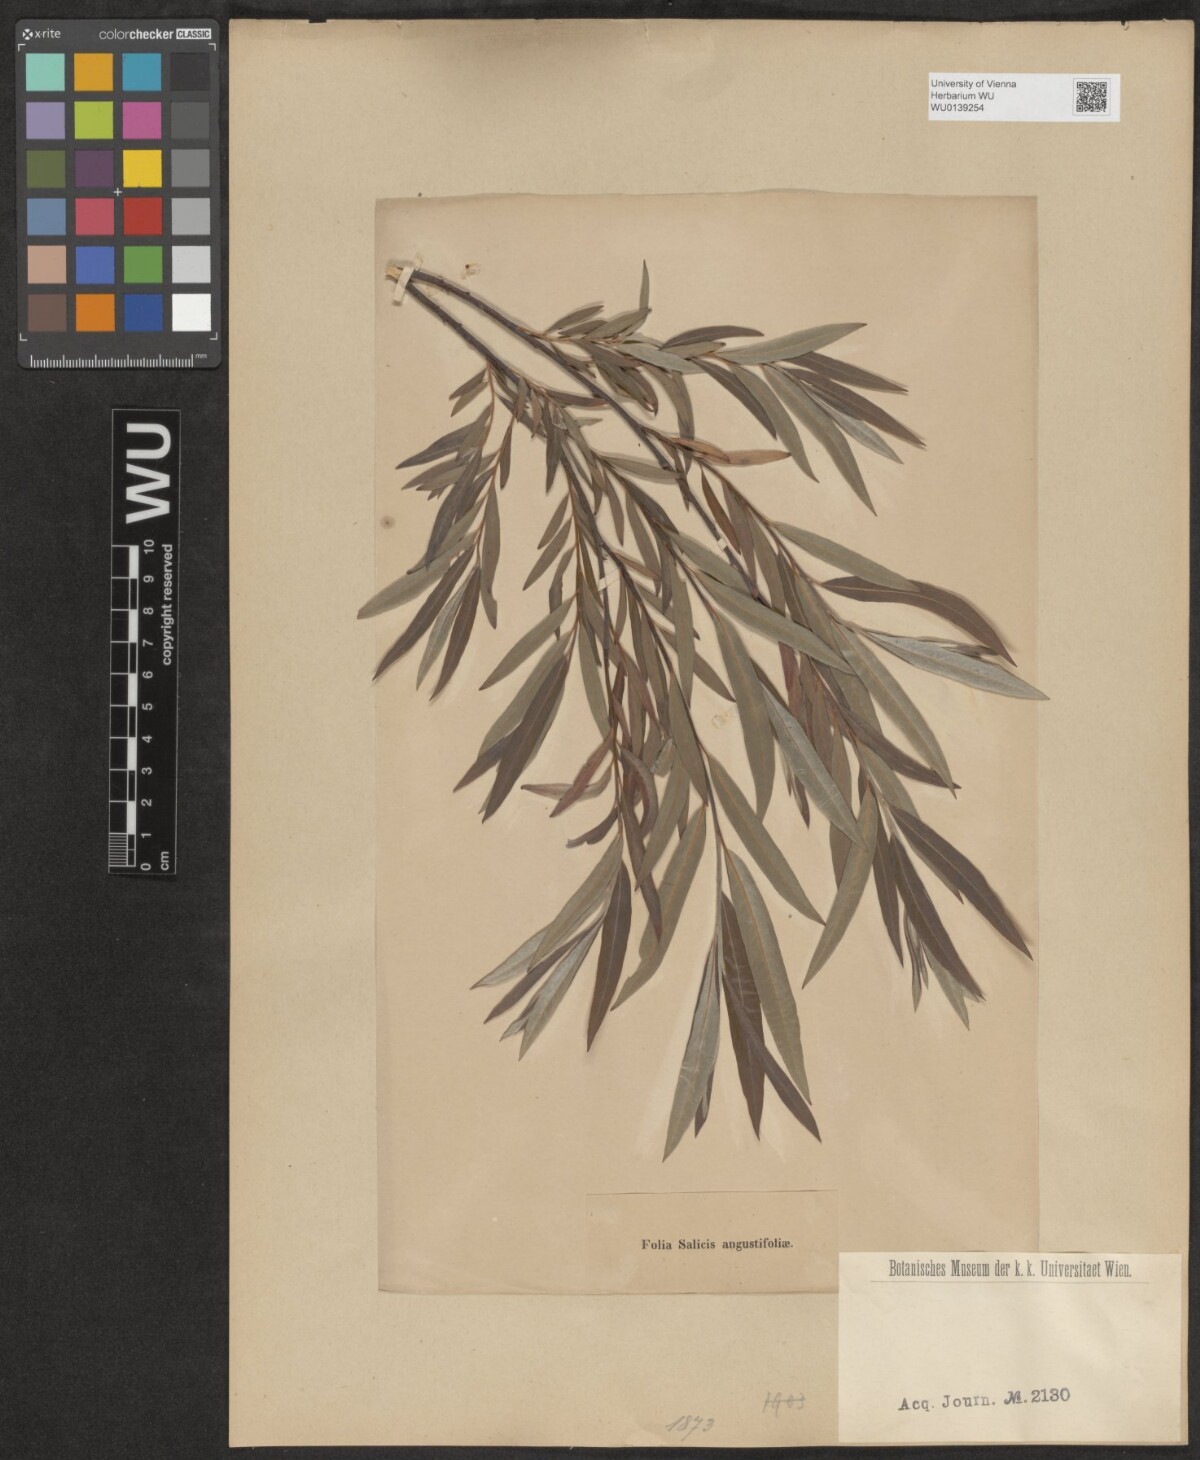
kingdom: Plantae
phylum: Tracheophyta
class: Magnoliopsida
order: Malpighiales
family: Salicaceae
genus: Salix
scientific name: Salix repens
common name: Creeping willow
